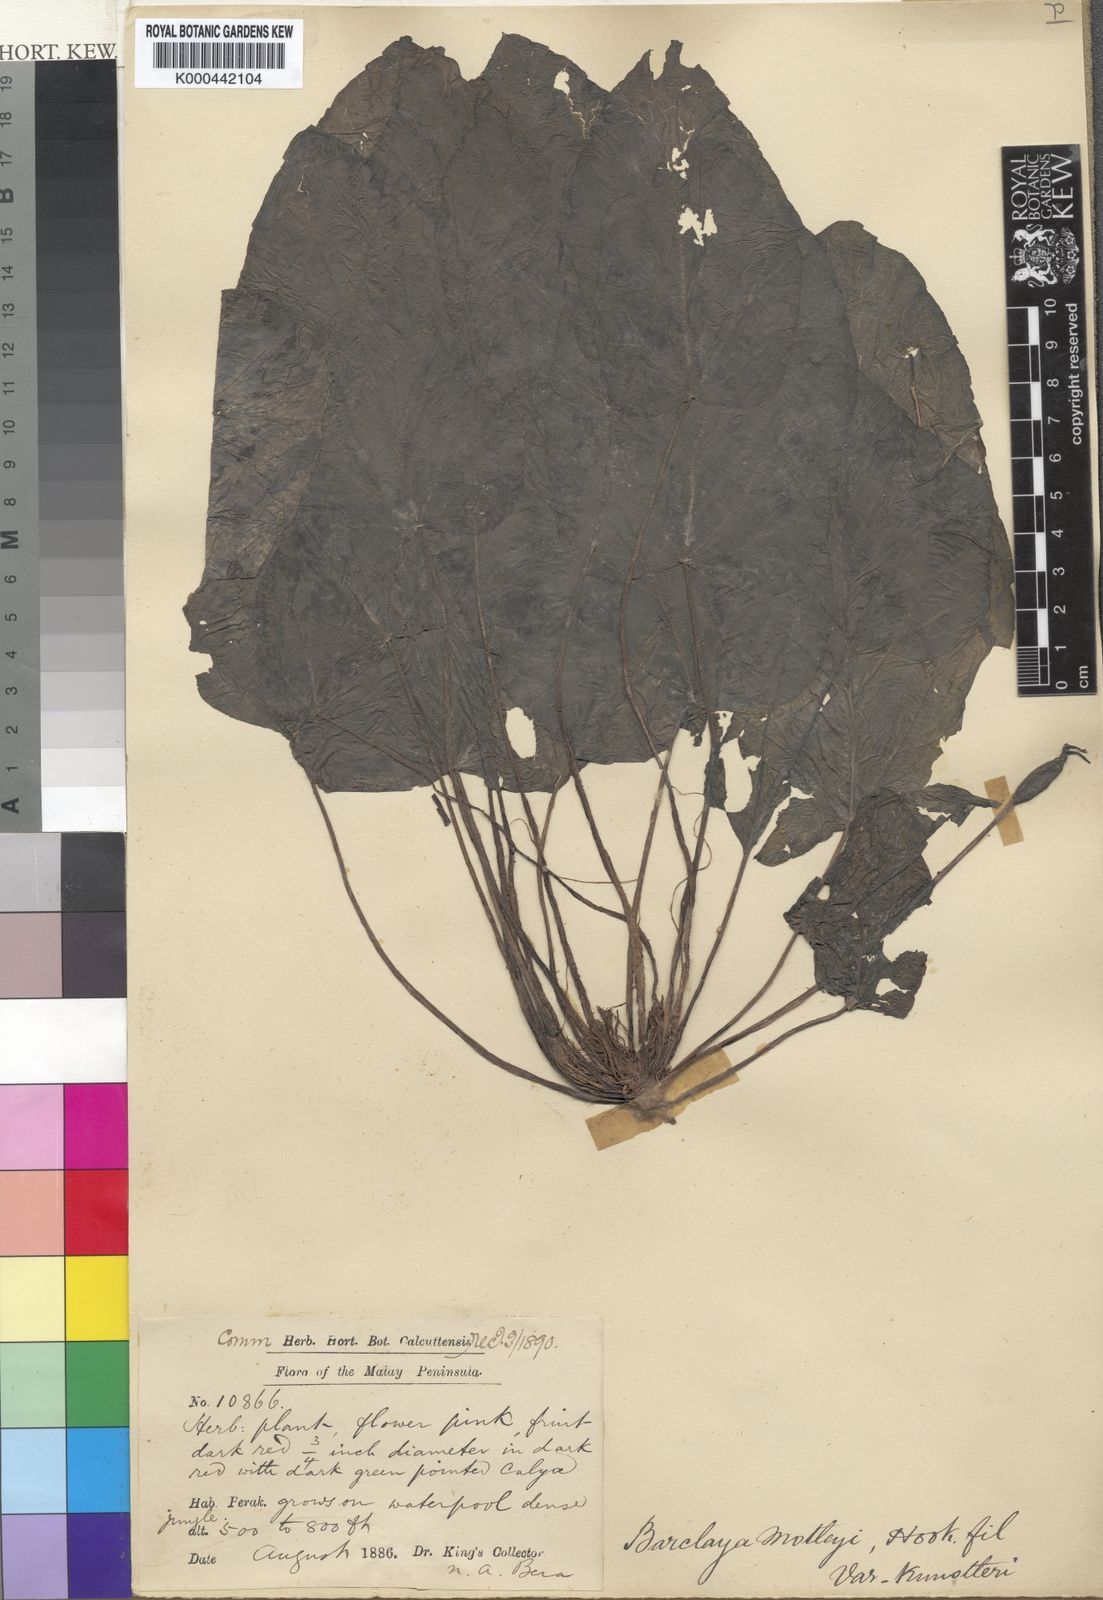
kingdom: Plantae
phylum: Tracheophyta
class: Magnoliopsida
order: Nymphaeales
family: Nymphaeaceae
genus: Barclaya
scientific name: Barclaya motleyi
